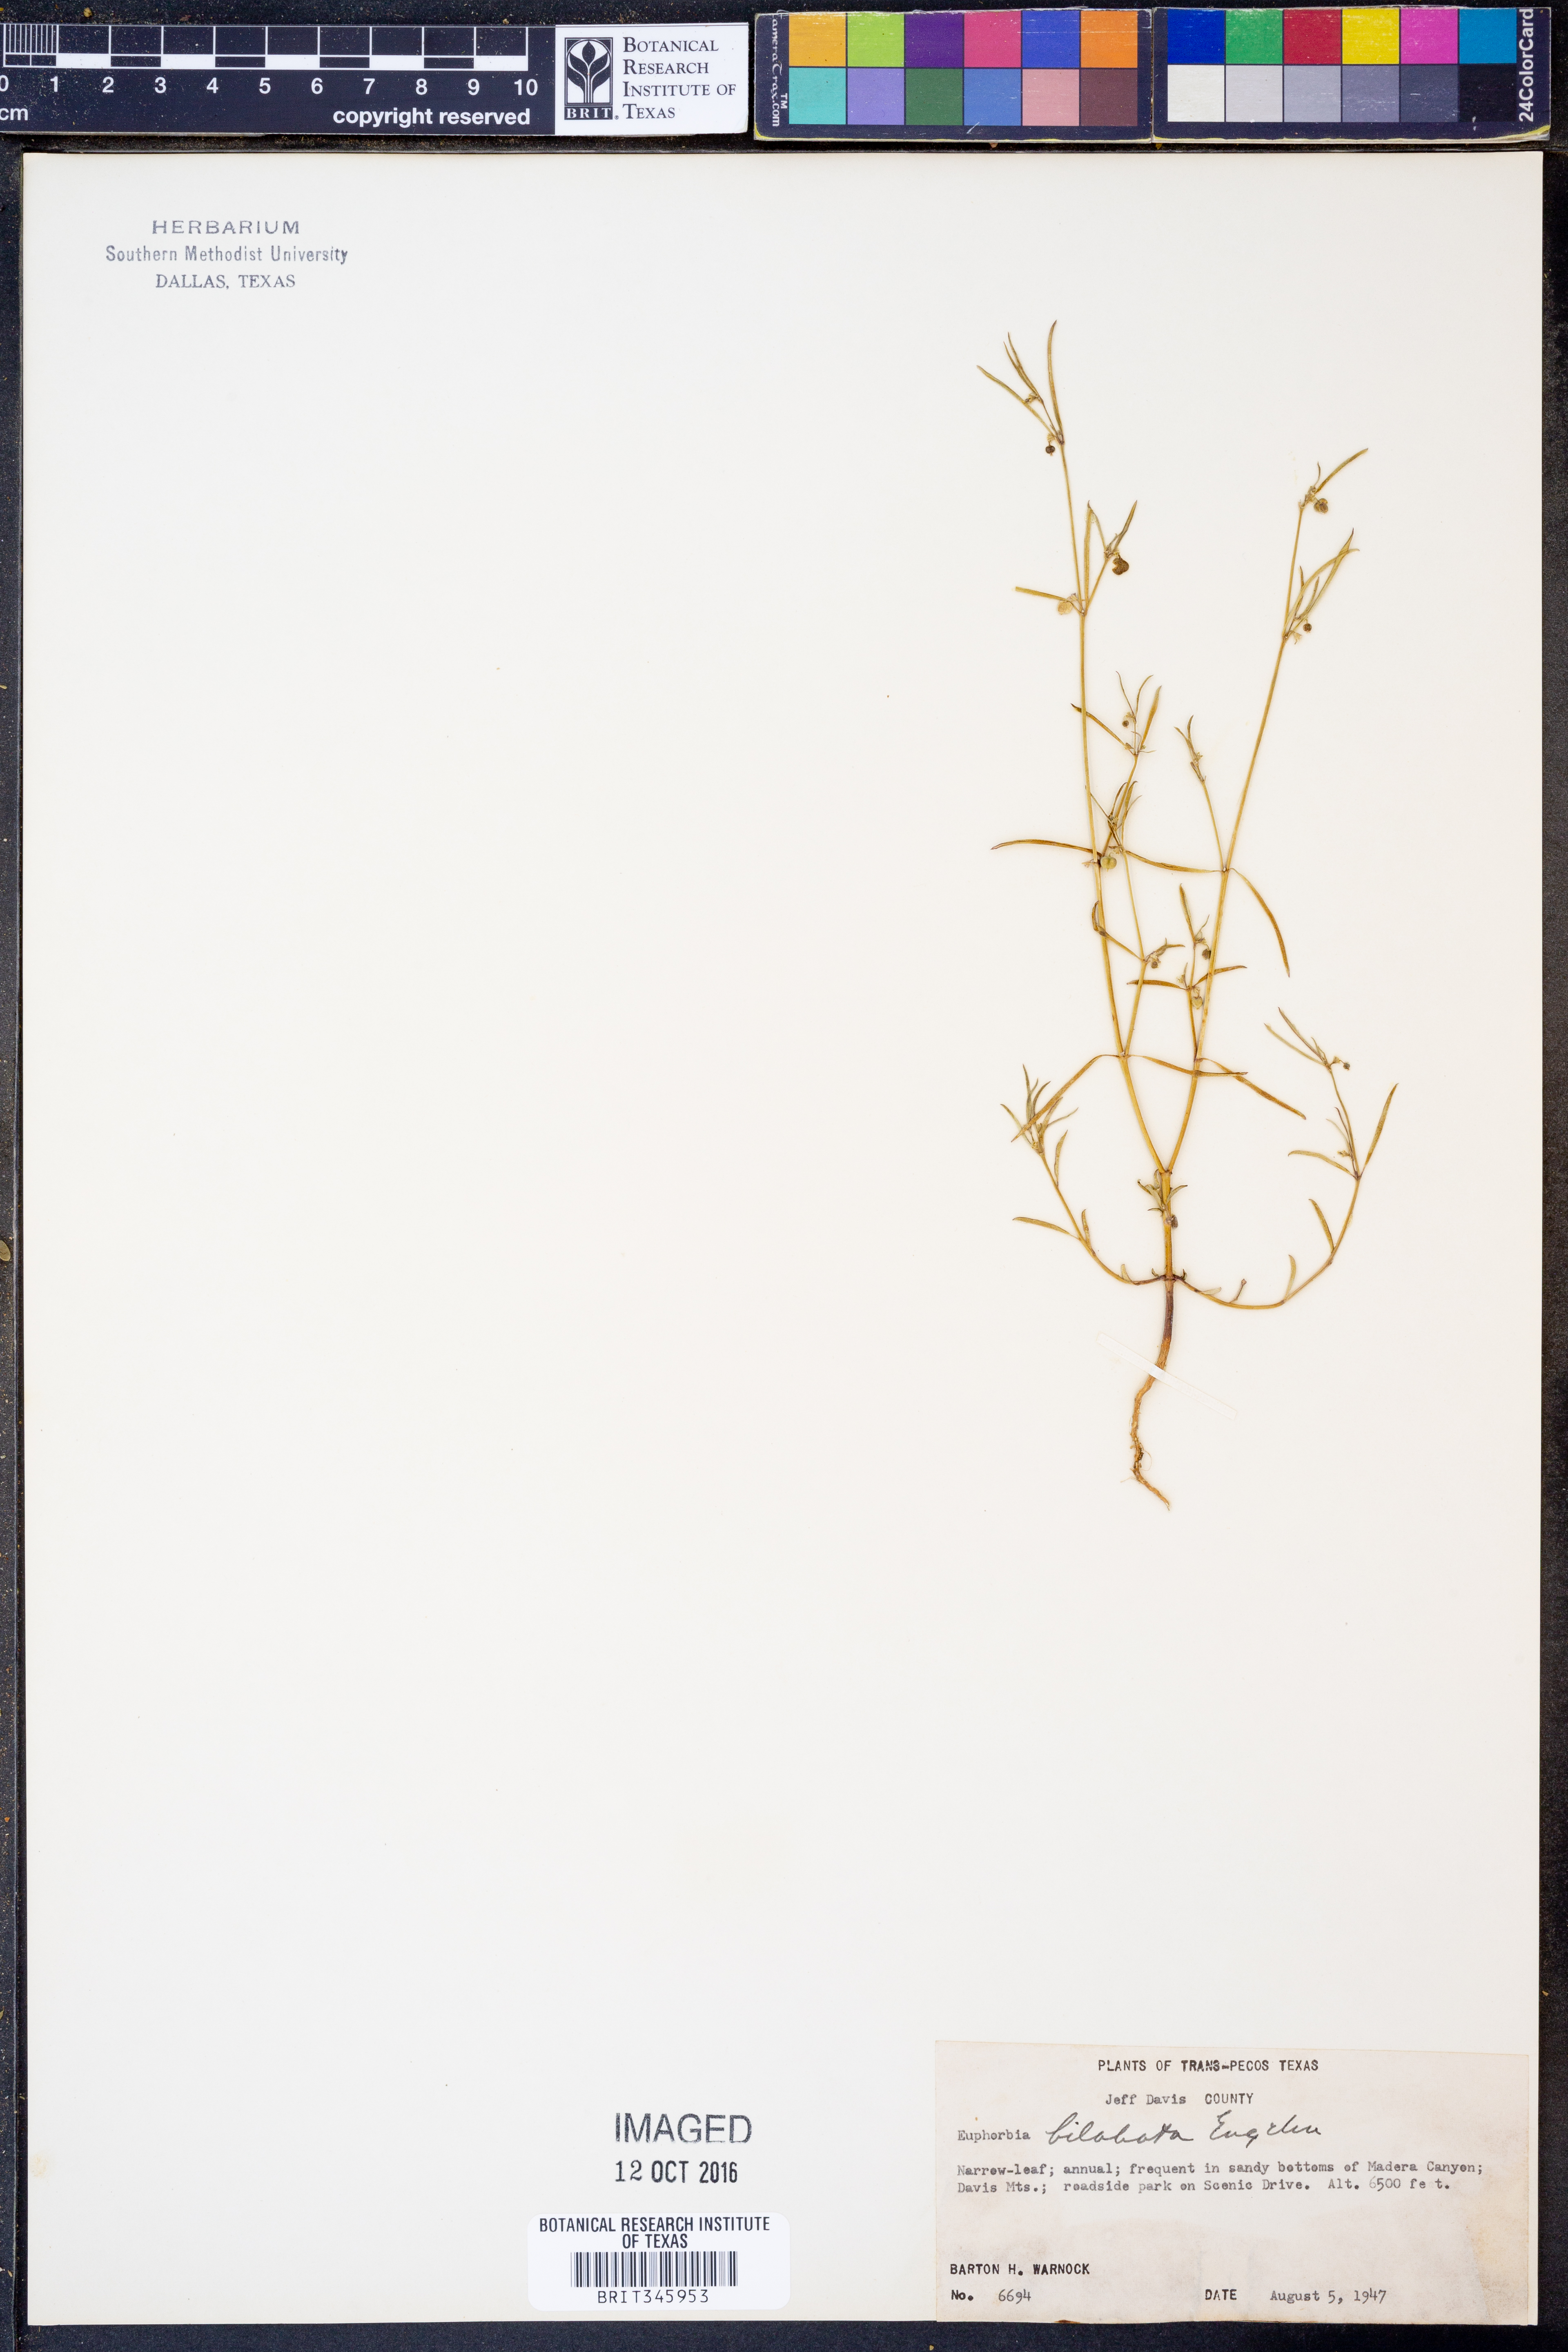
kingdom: Plantae
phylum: Tracheophyta
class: Magnoliopsida
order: Malpighiales
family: Euphorbiaceae
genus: Euphorbia
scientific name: Euphorbia bilobata
